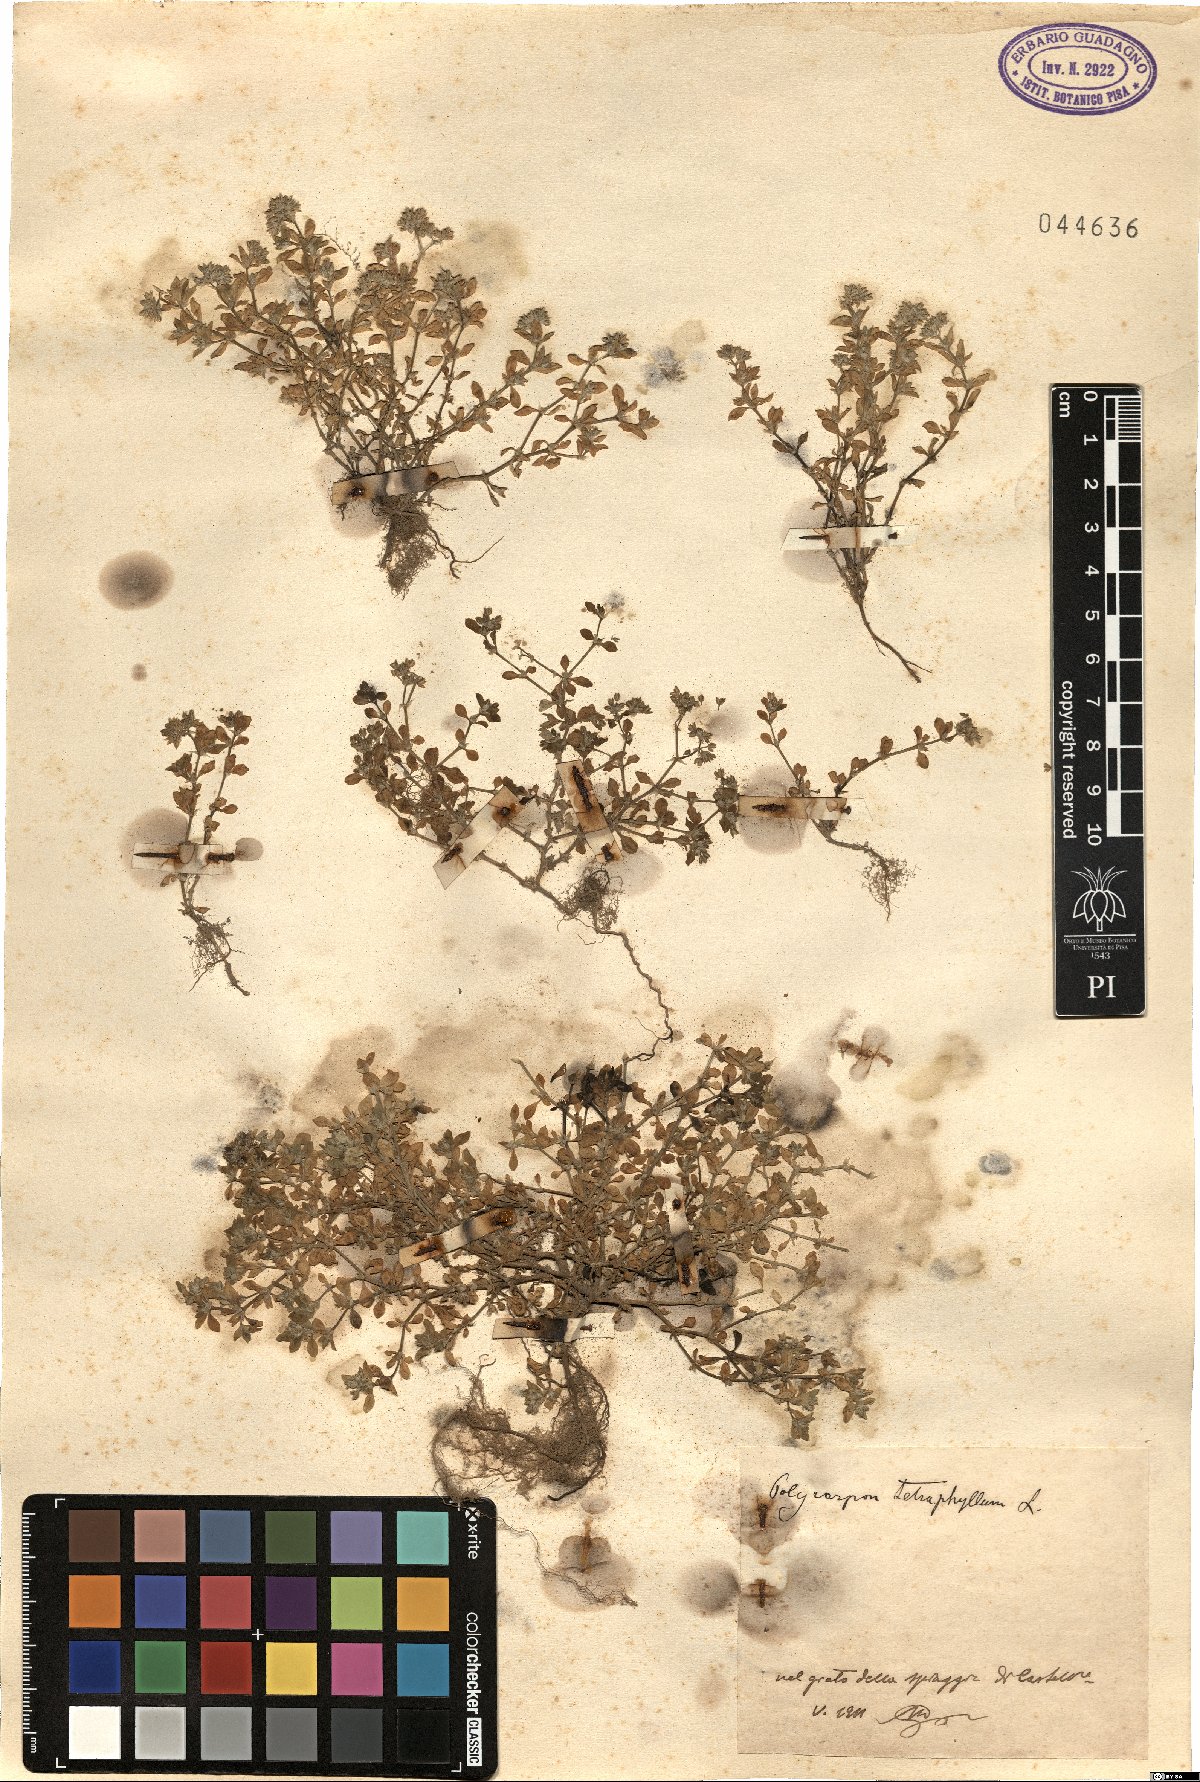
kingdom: Plantae
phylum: Tracheophyta
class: Magnoliopsida
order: Caryophyllales
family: Caryophyllaceae
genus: Polycarpon
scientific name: Polycarpon tetraphyllum
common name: Four-leaved all-seed
